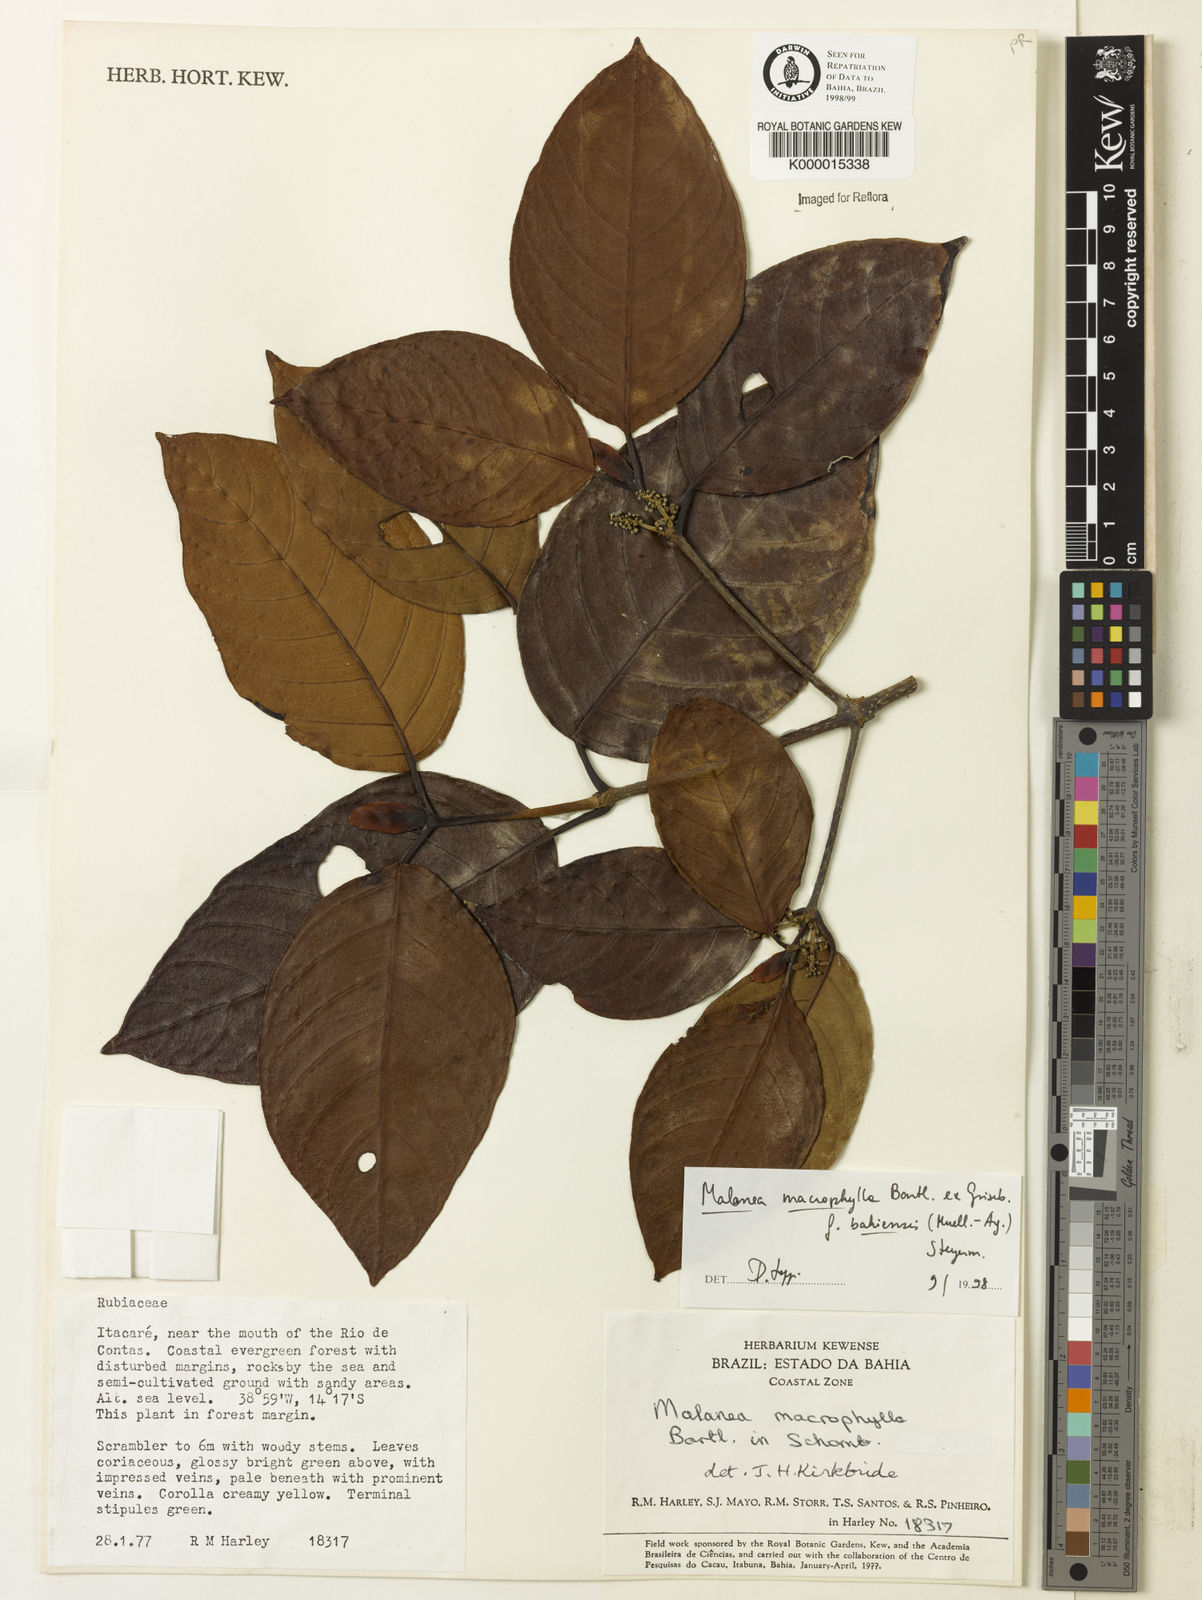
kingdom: Plantae
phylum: Tracheophyta
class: Magnoliopsida
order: Gentianales
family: Rubiaceae
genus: Malanea
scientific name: Malanea glabra
